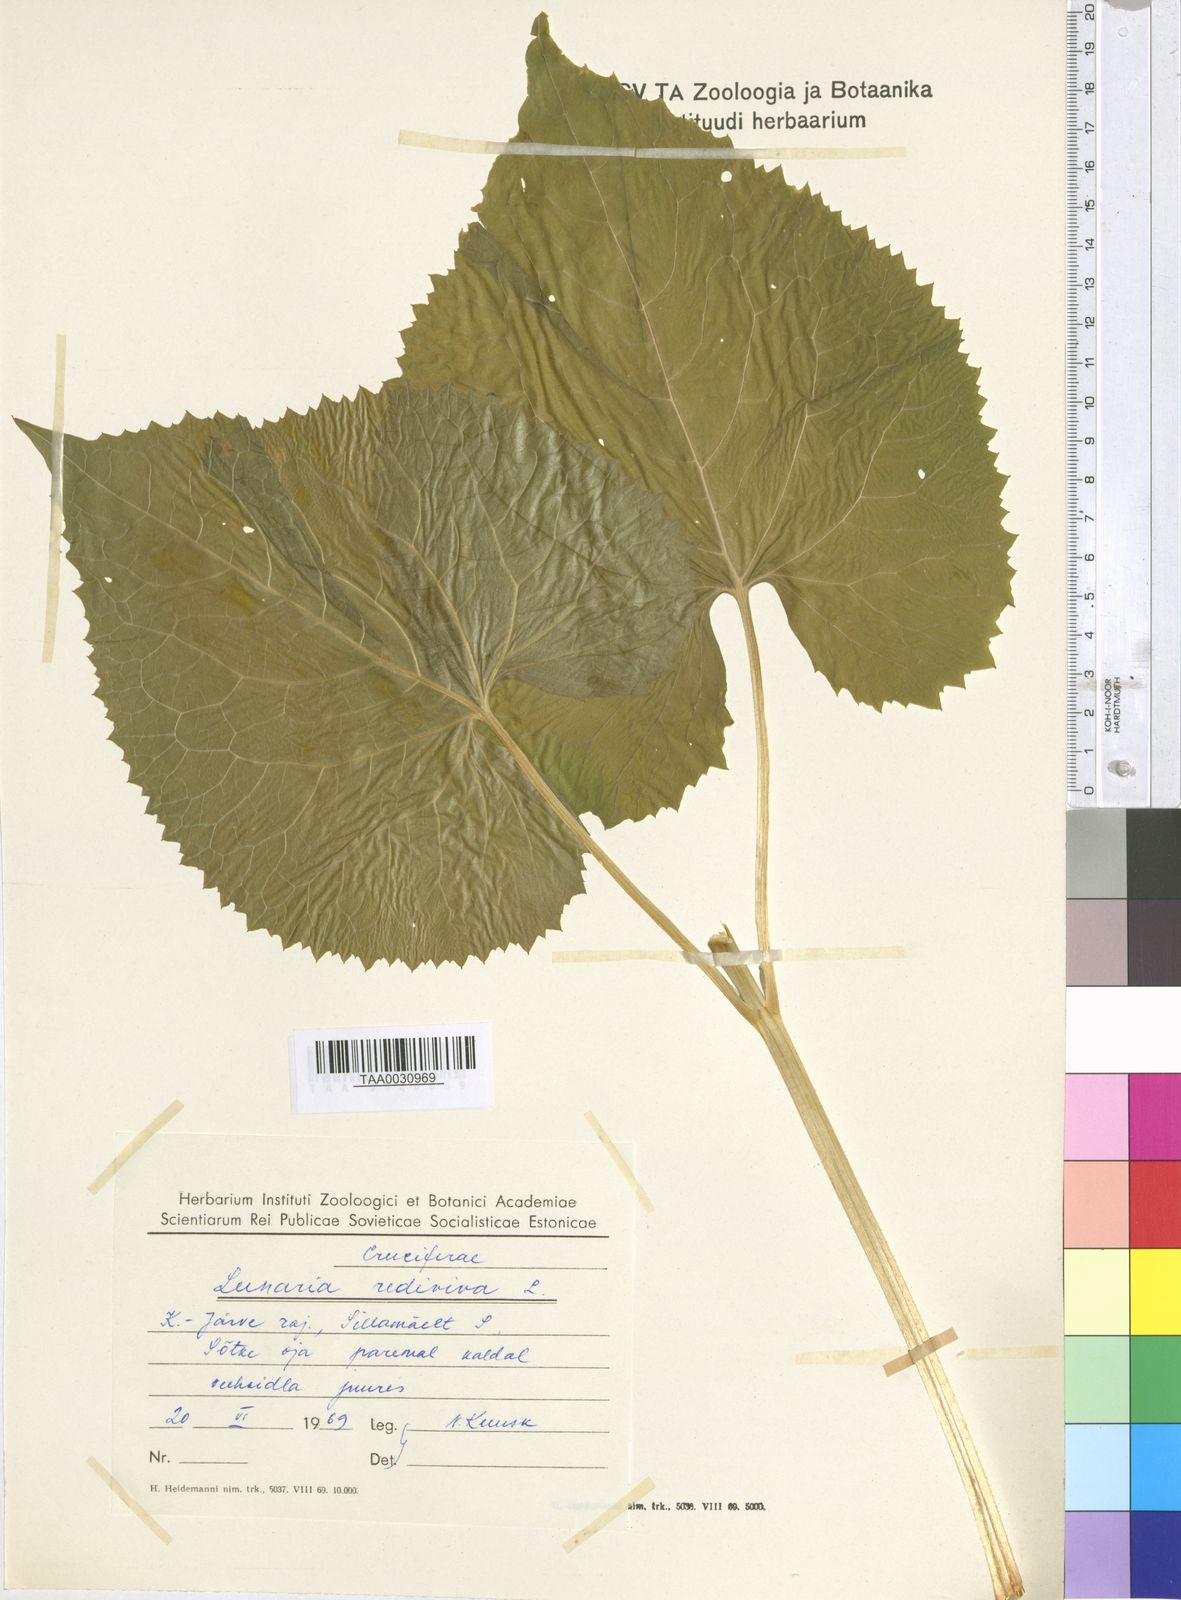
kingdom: Plantae
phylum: Tracheophyta
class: Magnoliopsida
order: Brassicales
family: Brassicaceae
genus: Lunaria
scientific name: Lunaria rediviva
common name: Perennial honesty
